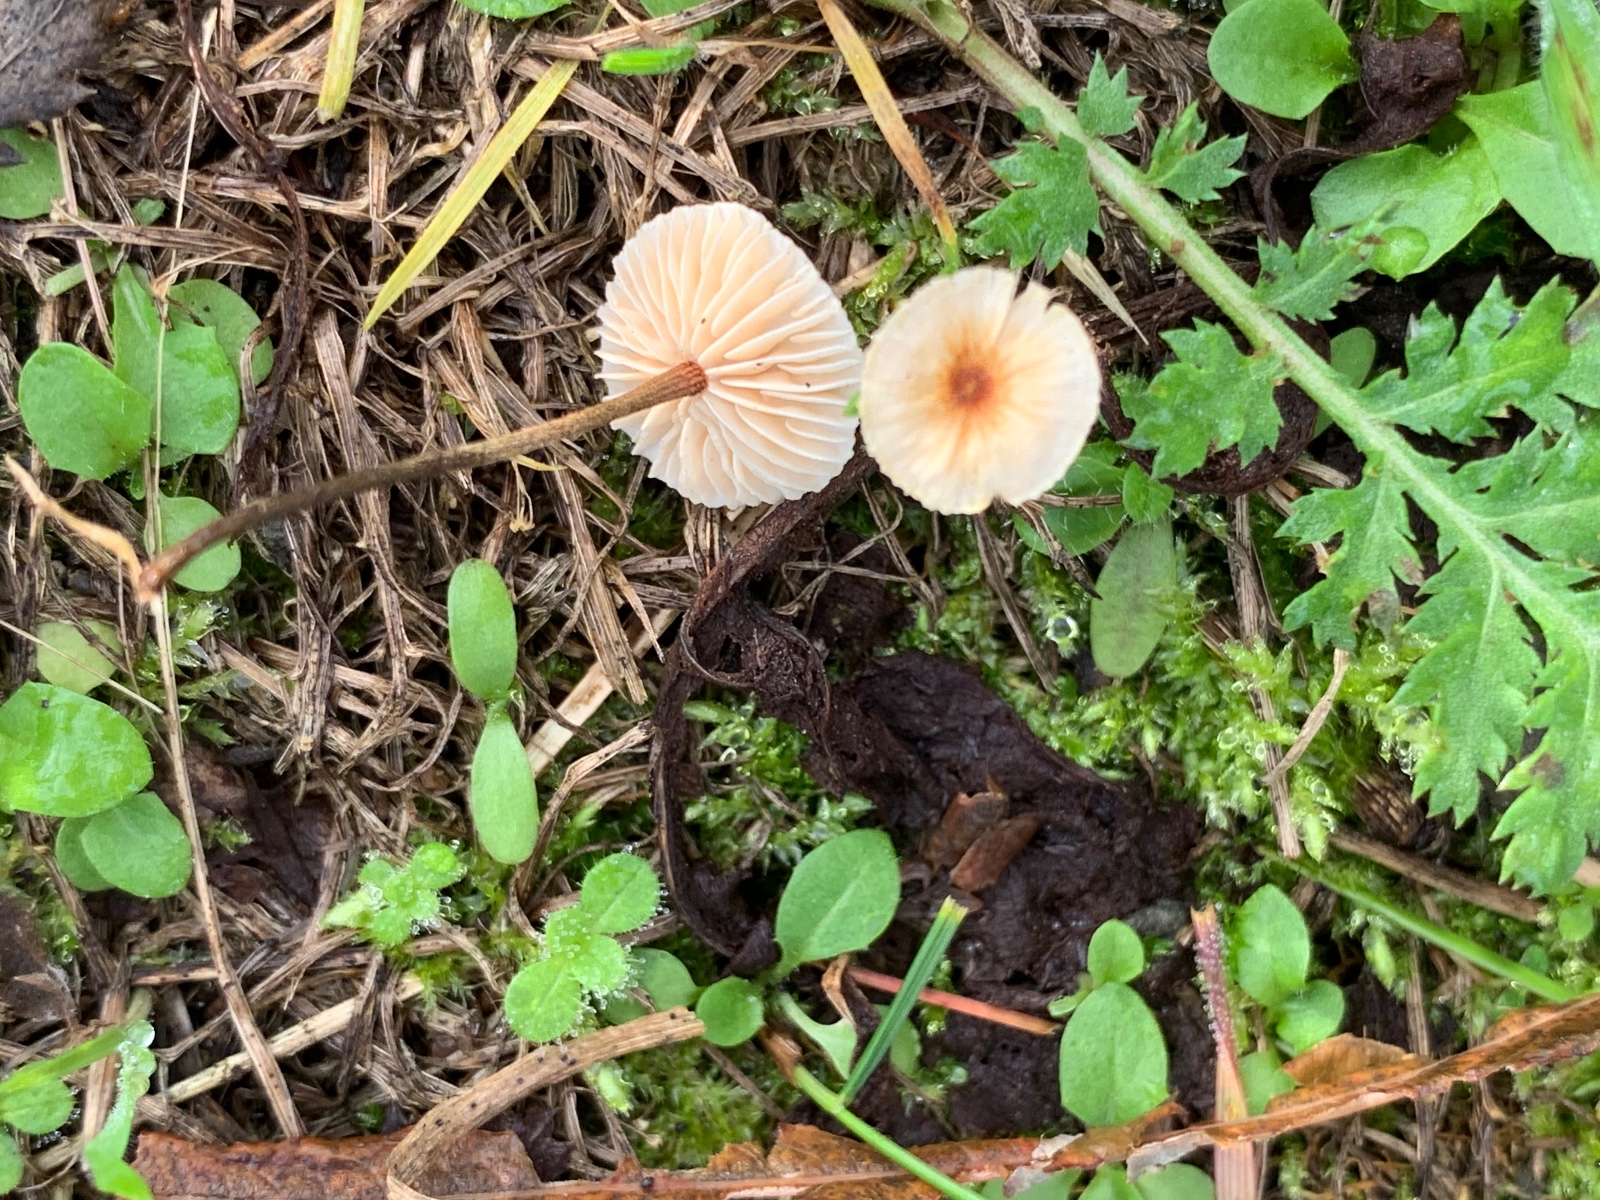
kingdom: Fungi
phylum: Basidiomycota
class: Agaricomycetes
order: Agaricales
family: Marasmiaceae
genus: Crinipellis
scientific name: Crinipellis scabella
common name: børstefod
